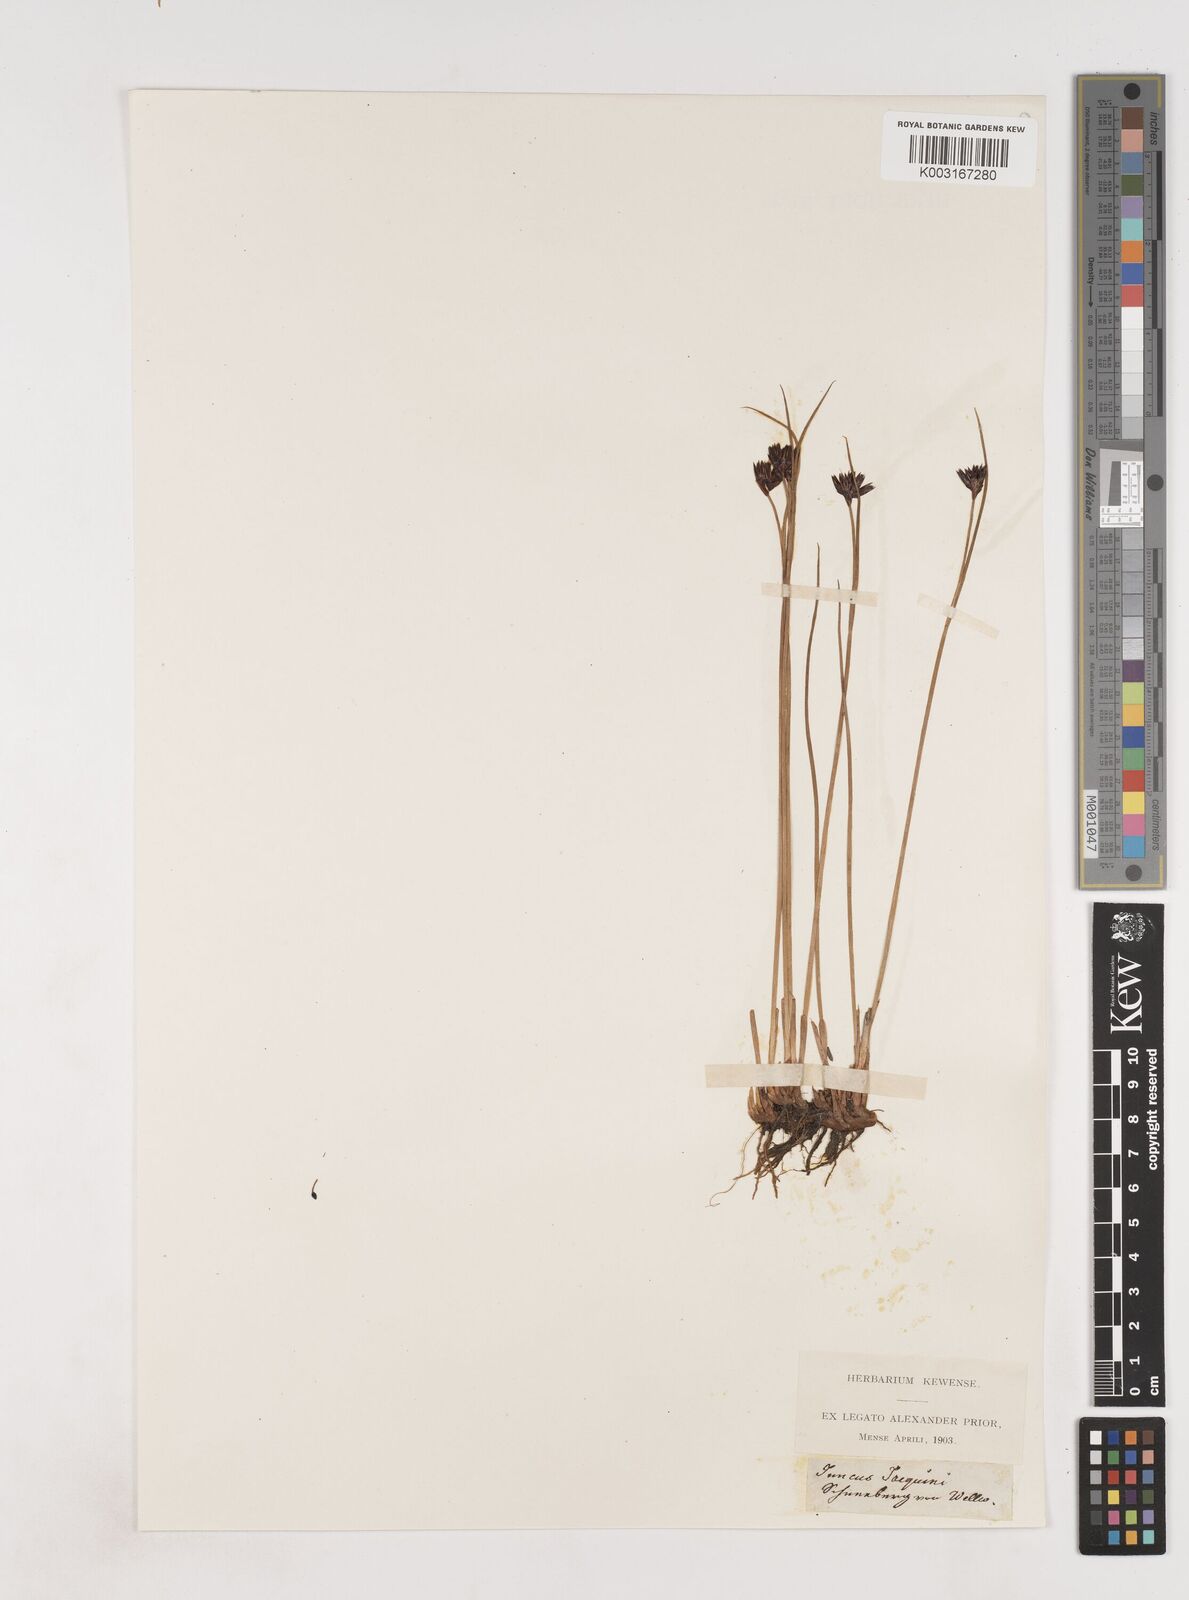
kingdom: Plantae
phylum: Tracheophyta
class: Liliopsida
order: Poales
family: Juncaceae
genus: Juncus
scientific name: Juncus jacquinii
